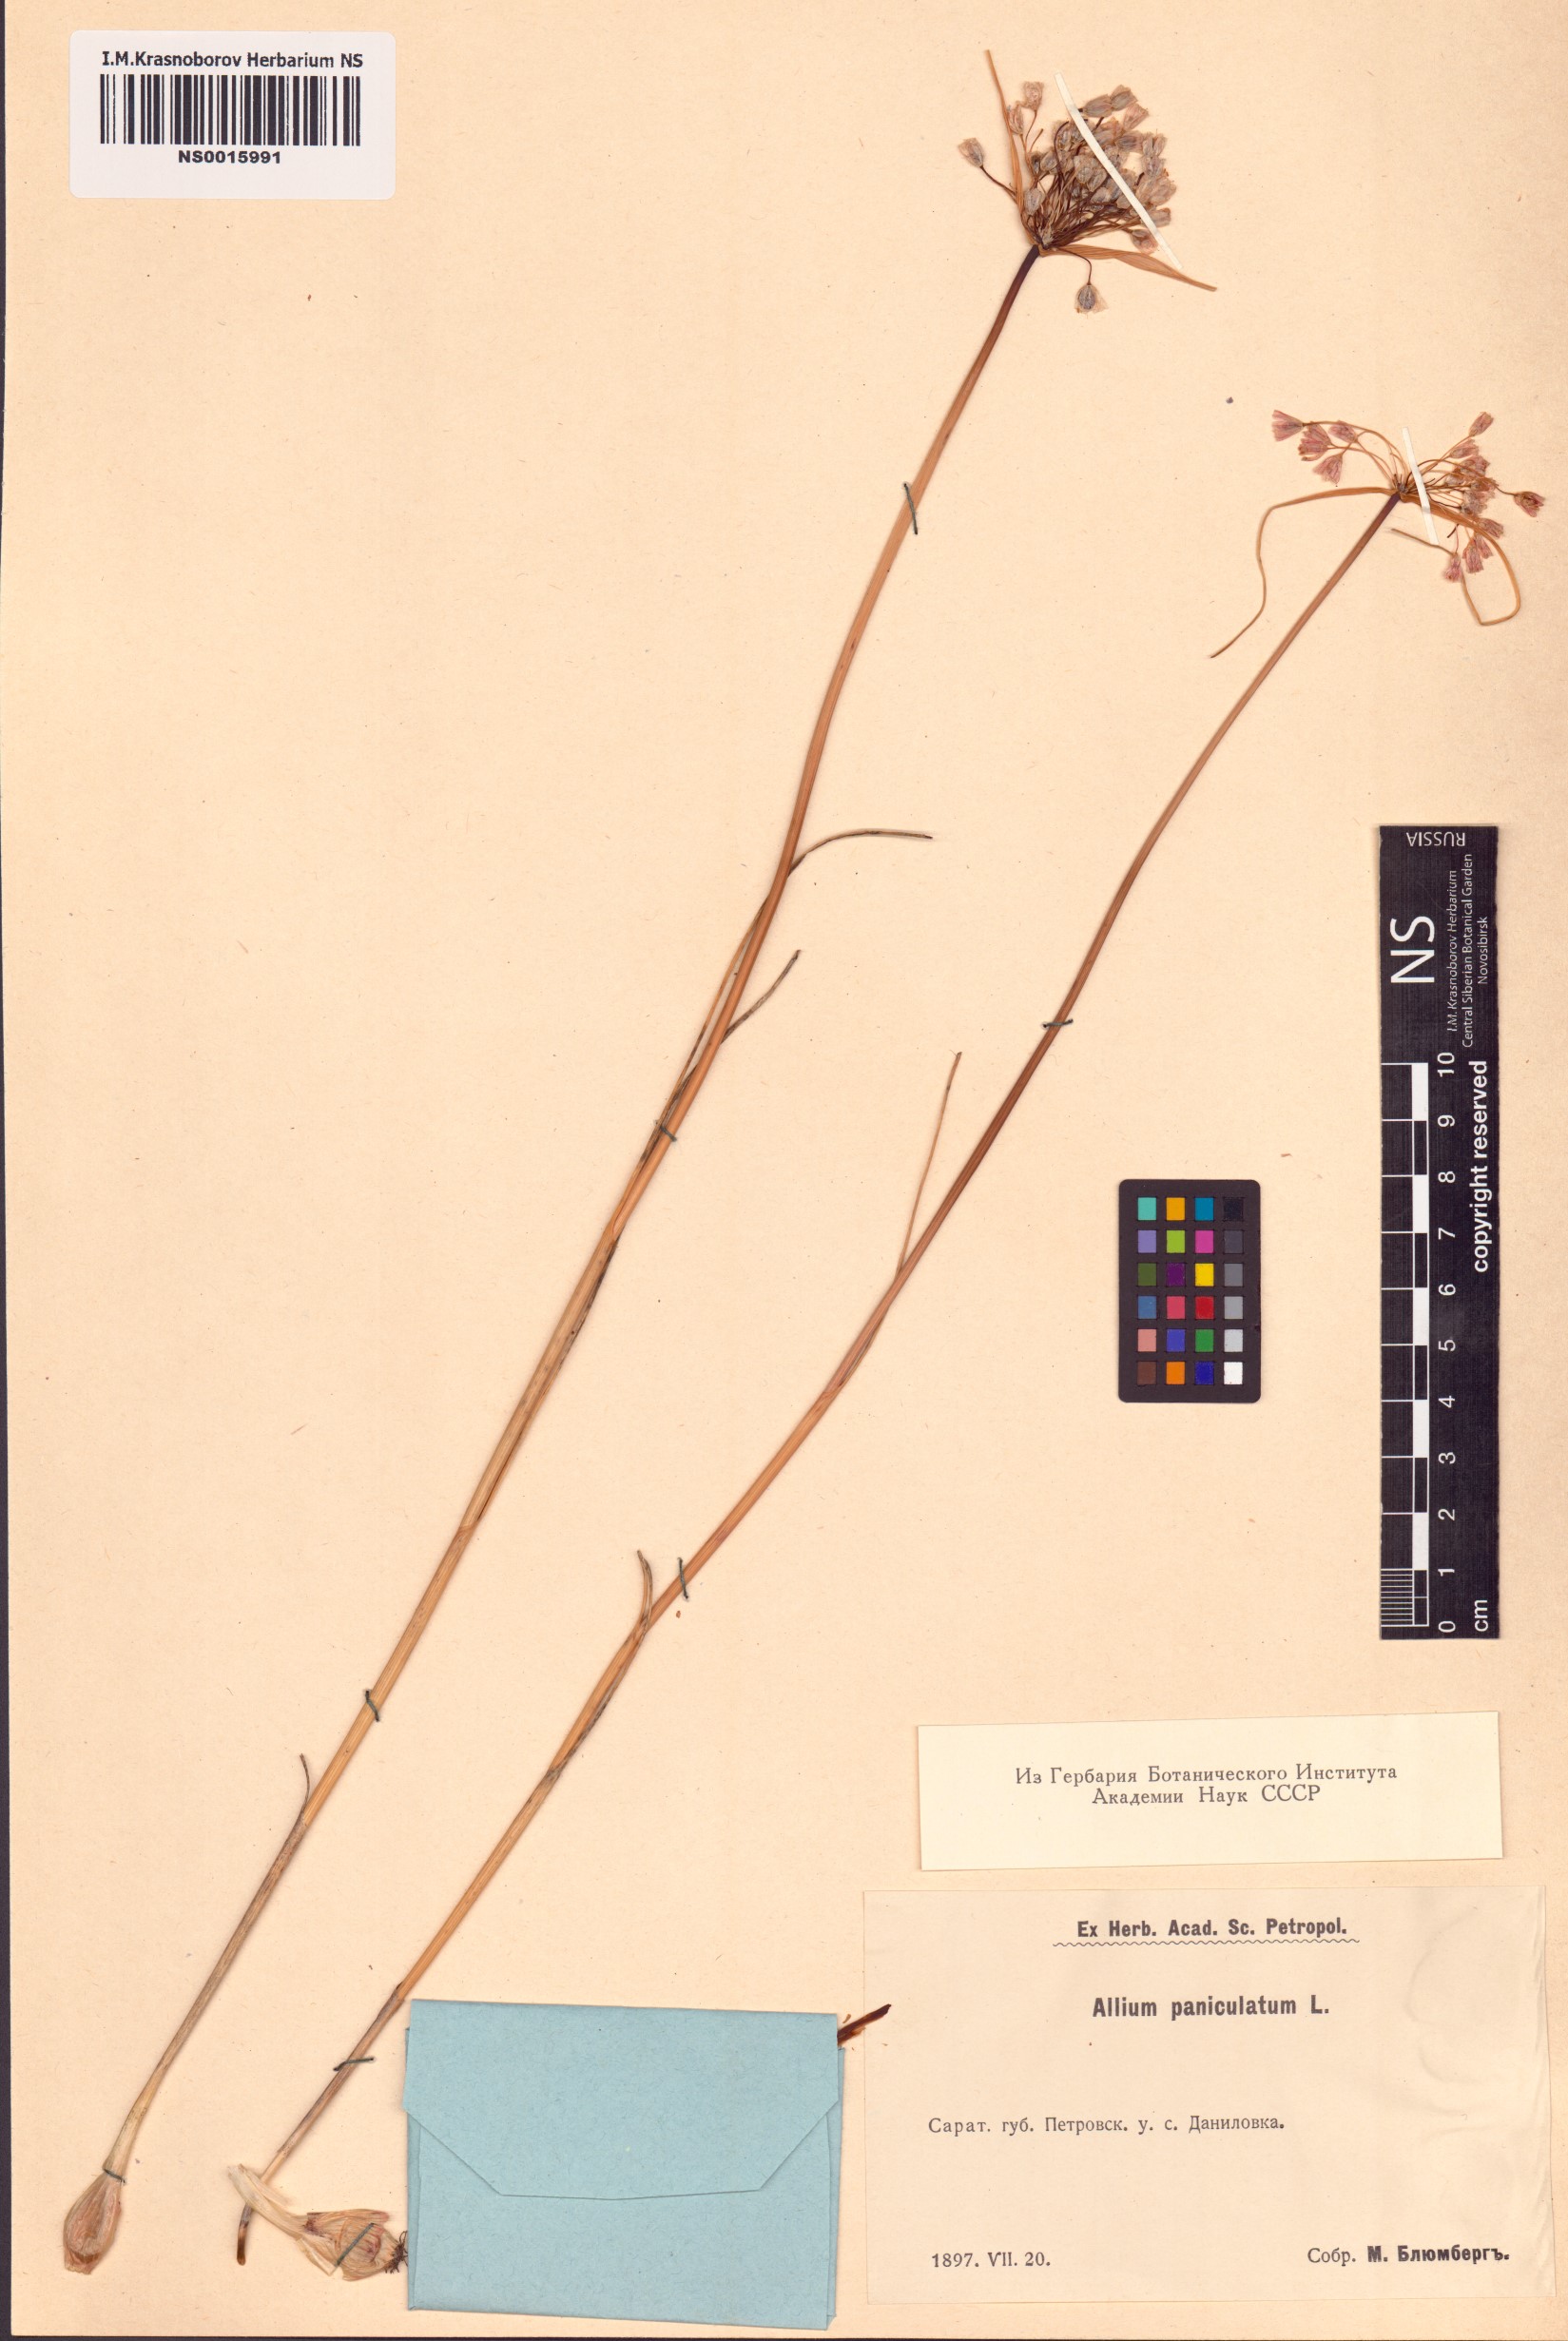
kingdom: Plantae
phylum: Tracheophyta
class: Liliopsida
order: Asparagales
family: Amaryllidaceae
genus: Allium
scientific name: Allium paniculatum
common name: Pale garlic
